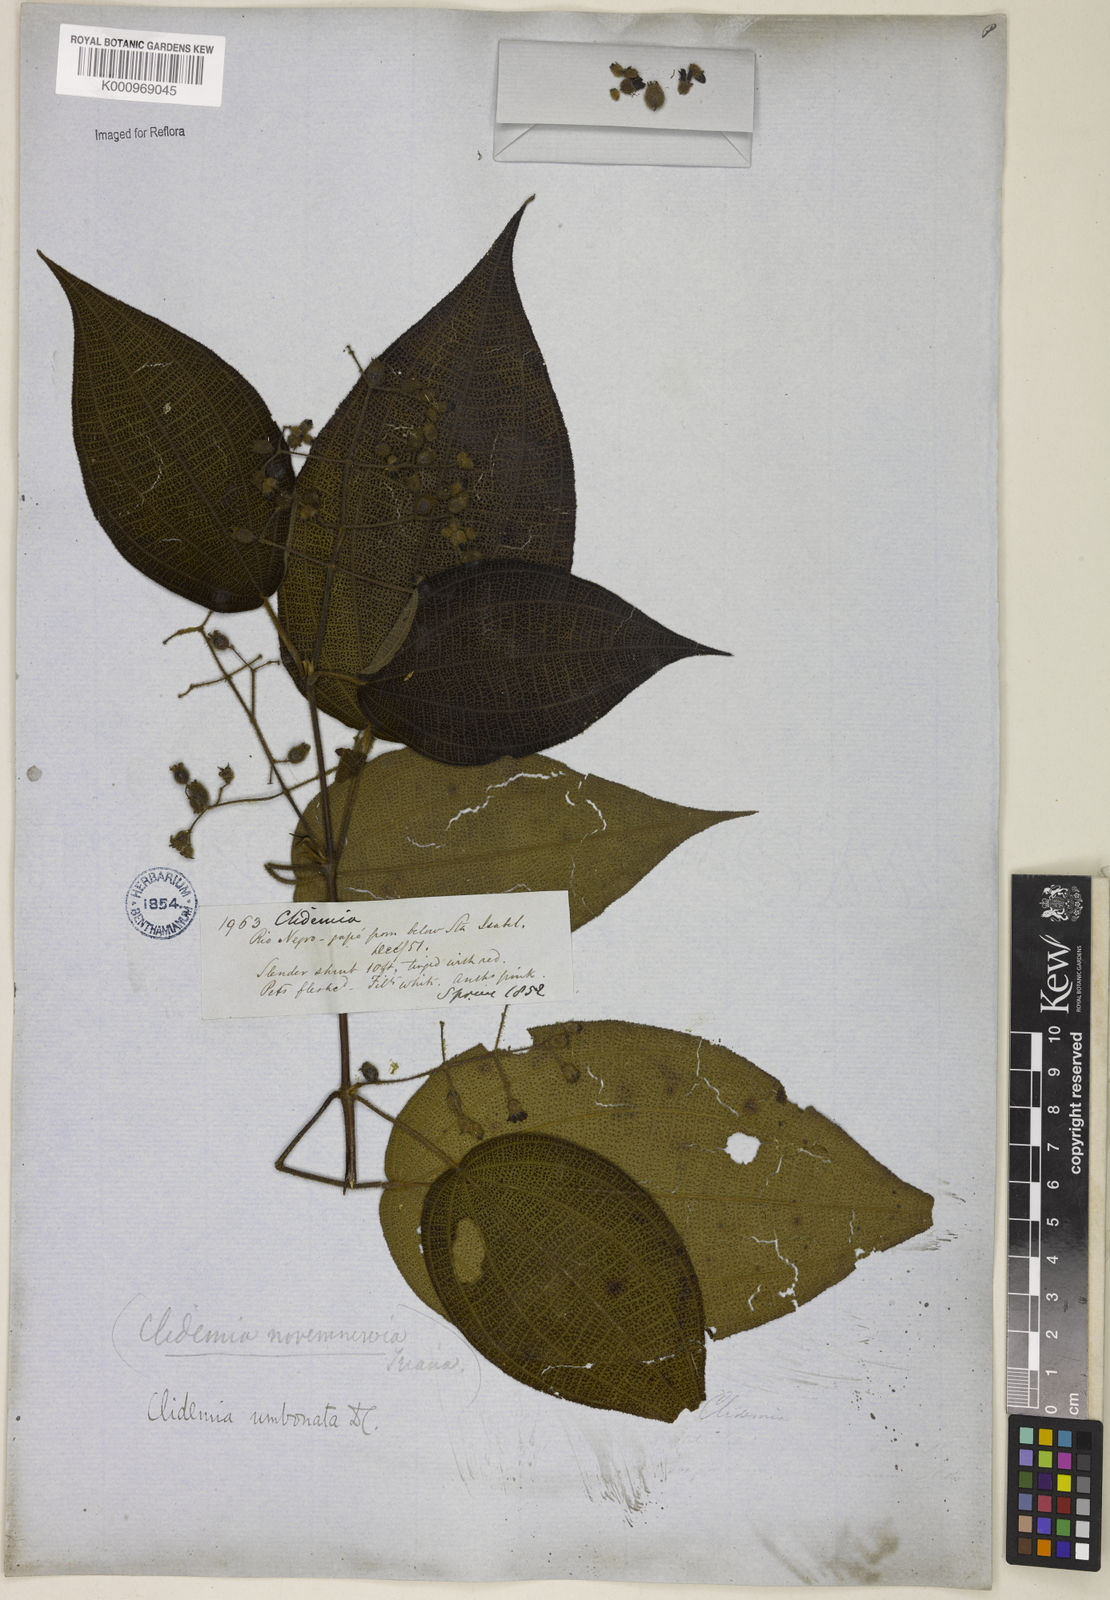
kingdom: Plantae
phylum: Tracheophyta
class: Magnoliopsida
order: Myrtales
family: Melastomataceae
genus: Miconia
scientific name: Miconia strigillosa
